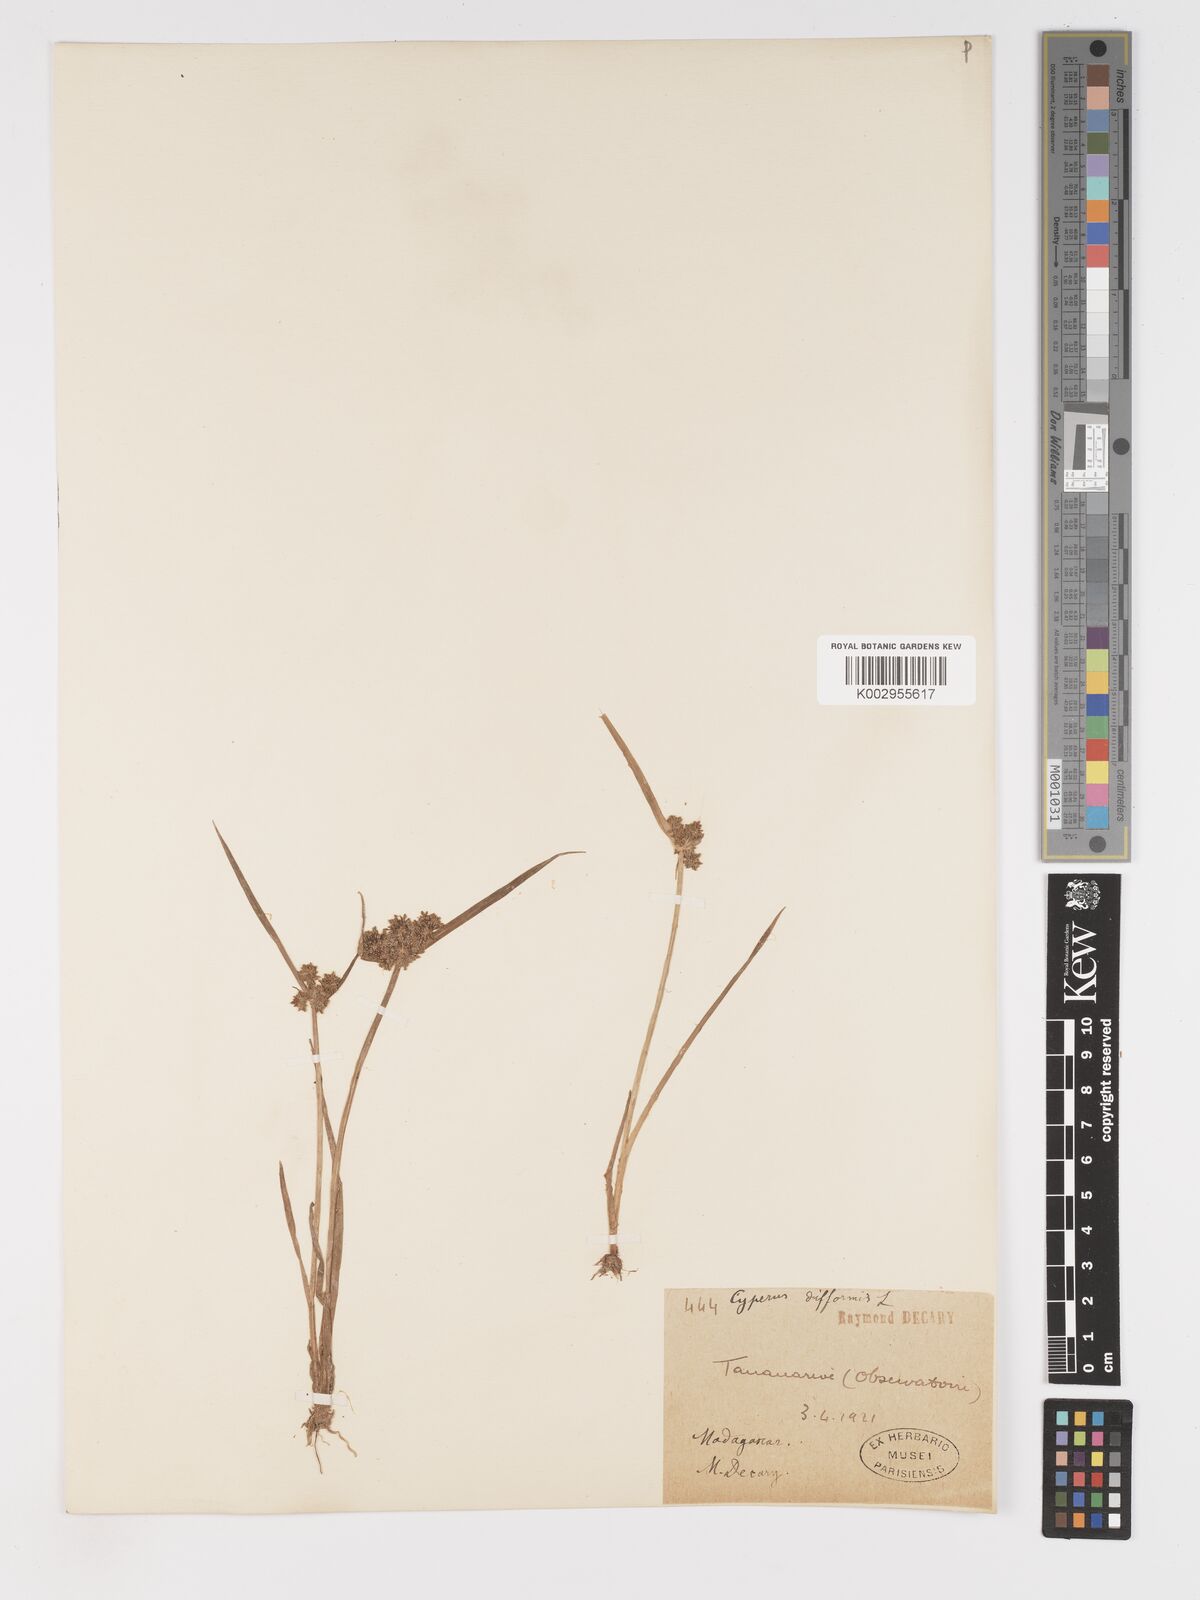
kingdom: Plantae
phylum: Tracheophyta
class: Liliopsida
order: Poales
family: Cyperaceae
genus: Cyperus
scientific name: Cyperus difformis
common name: Variable flatsedge
